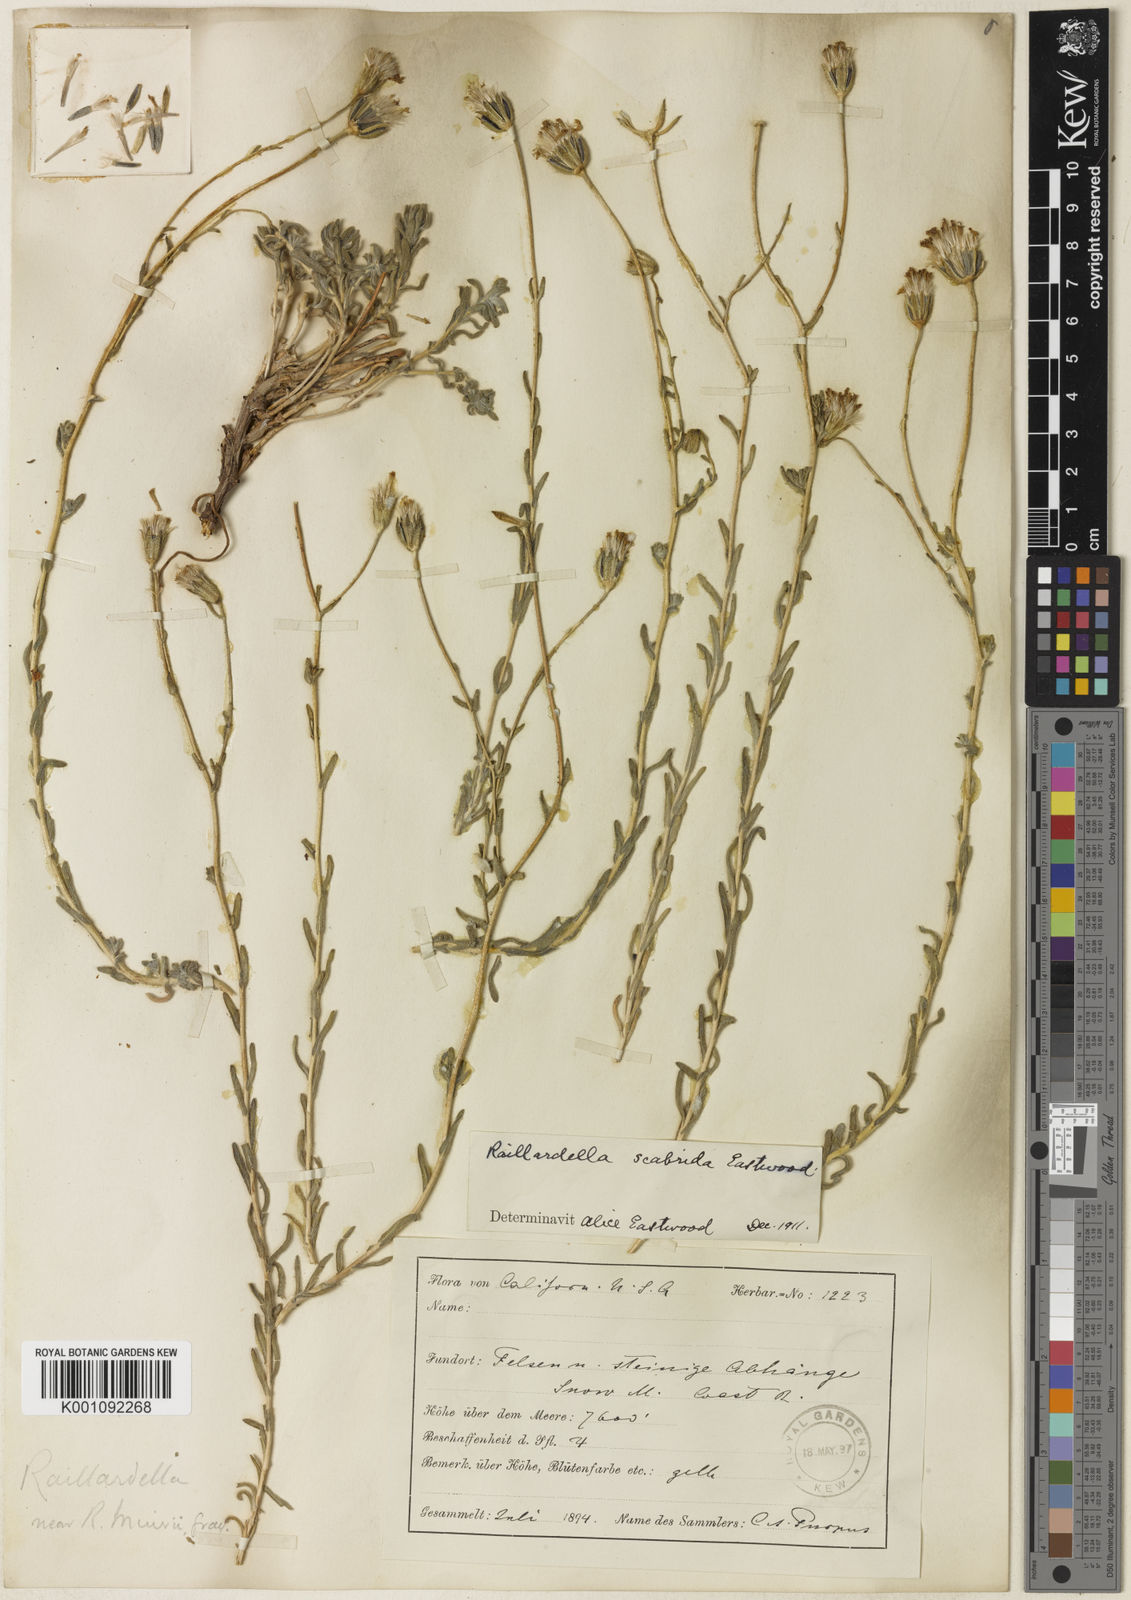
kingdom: Plantae
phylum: Tracheophyta
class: Magnoliopsida
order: Asterales
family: Asteraceae
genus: Anisocarpus
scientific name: Anisocarpus scabridus
